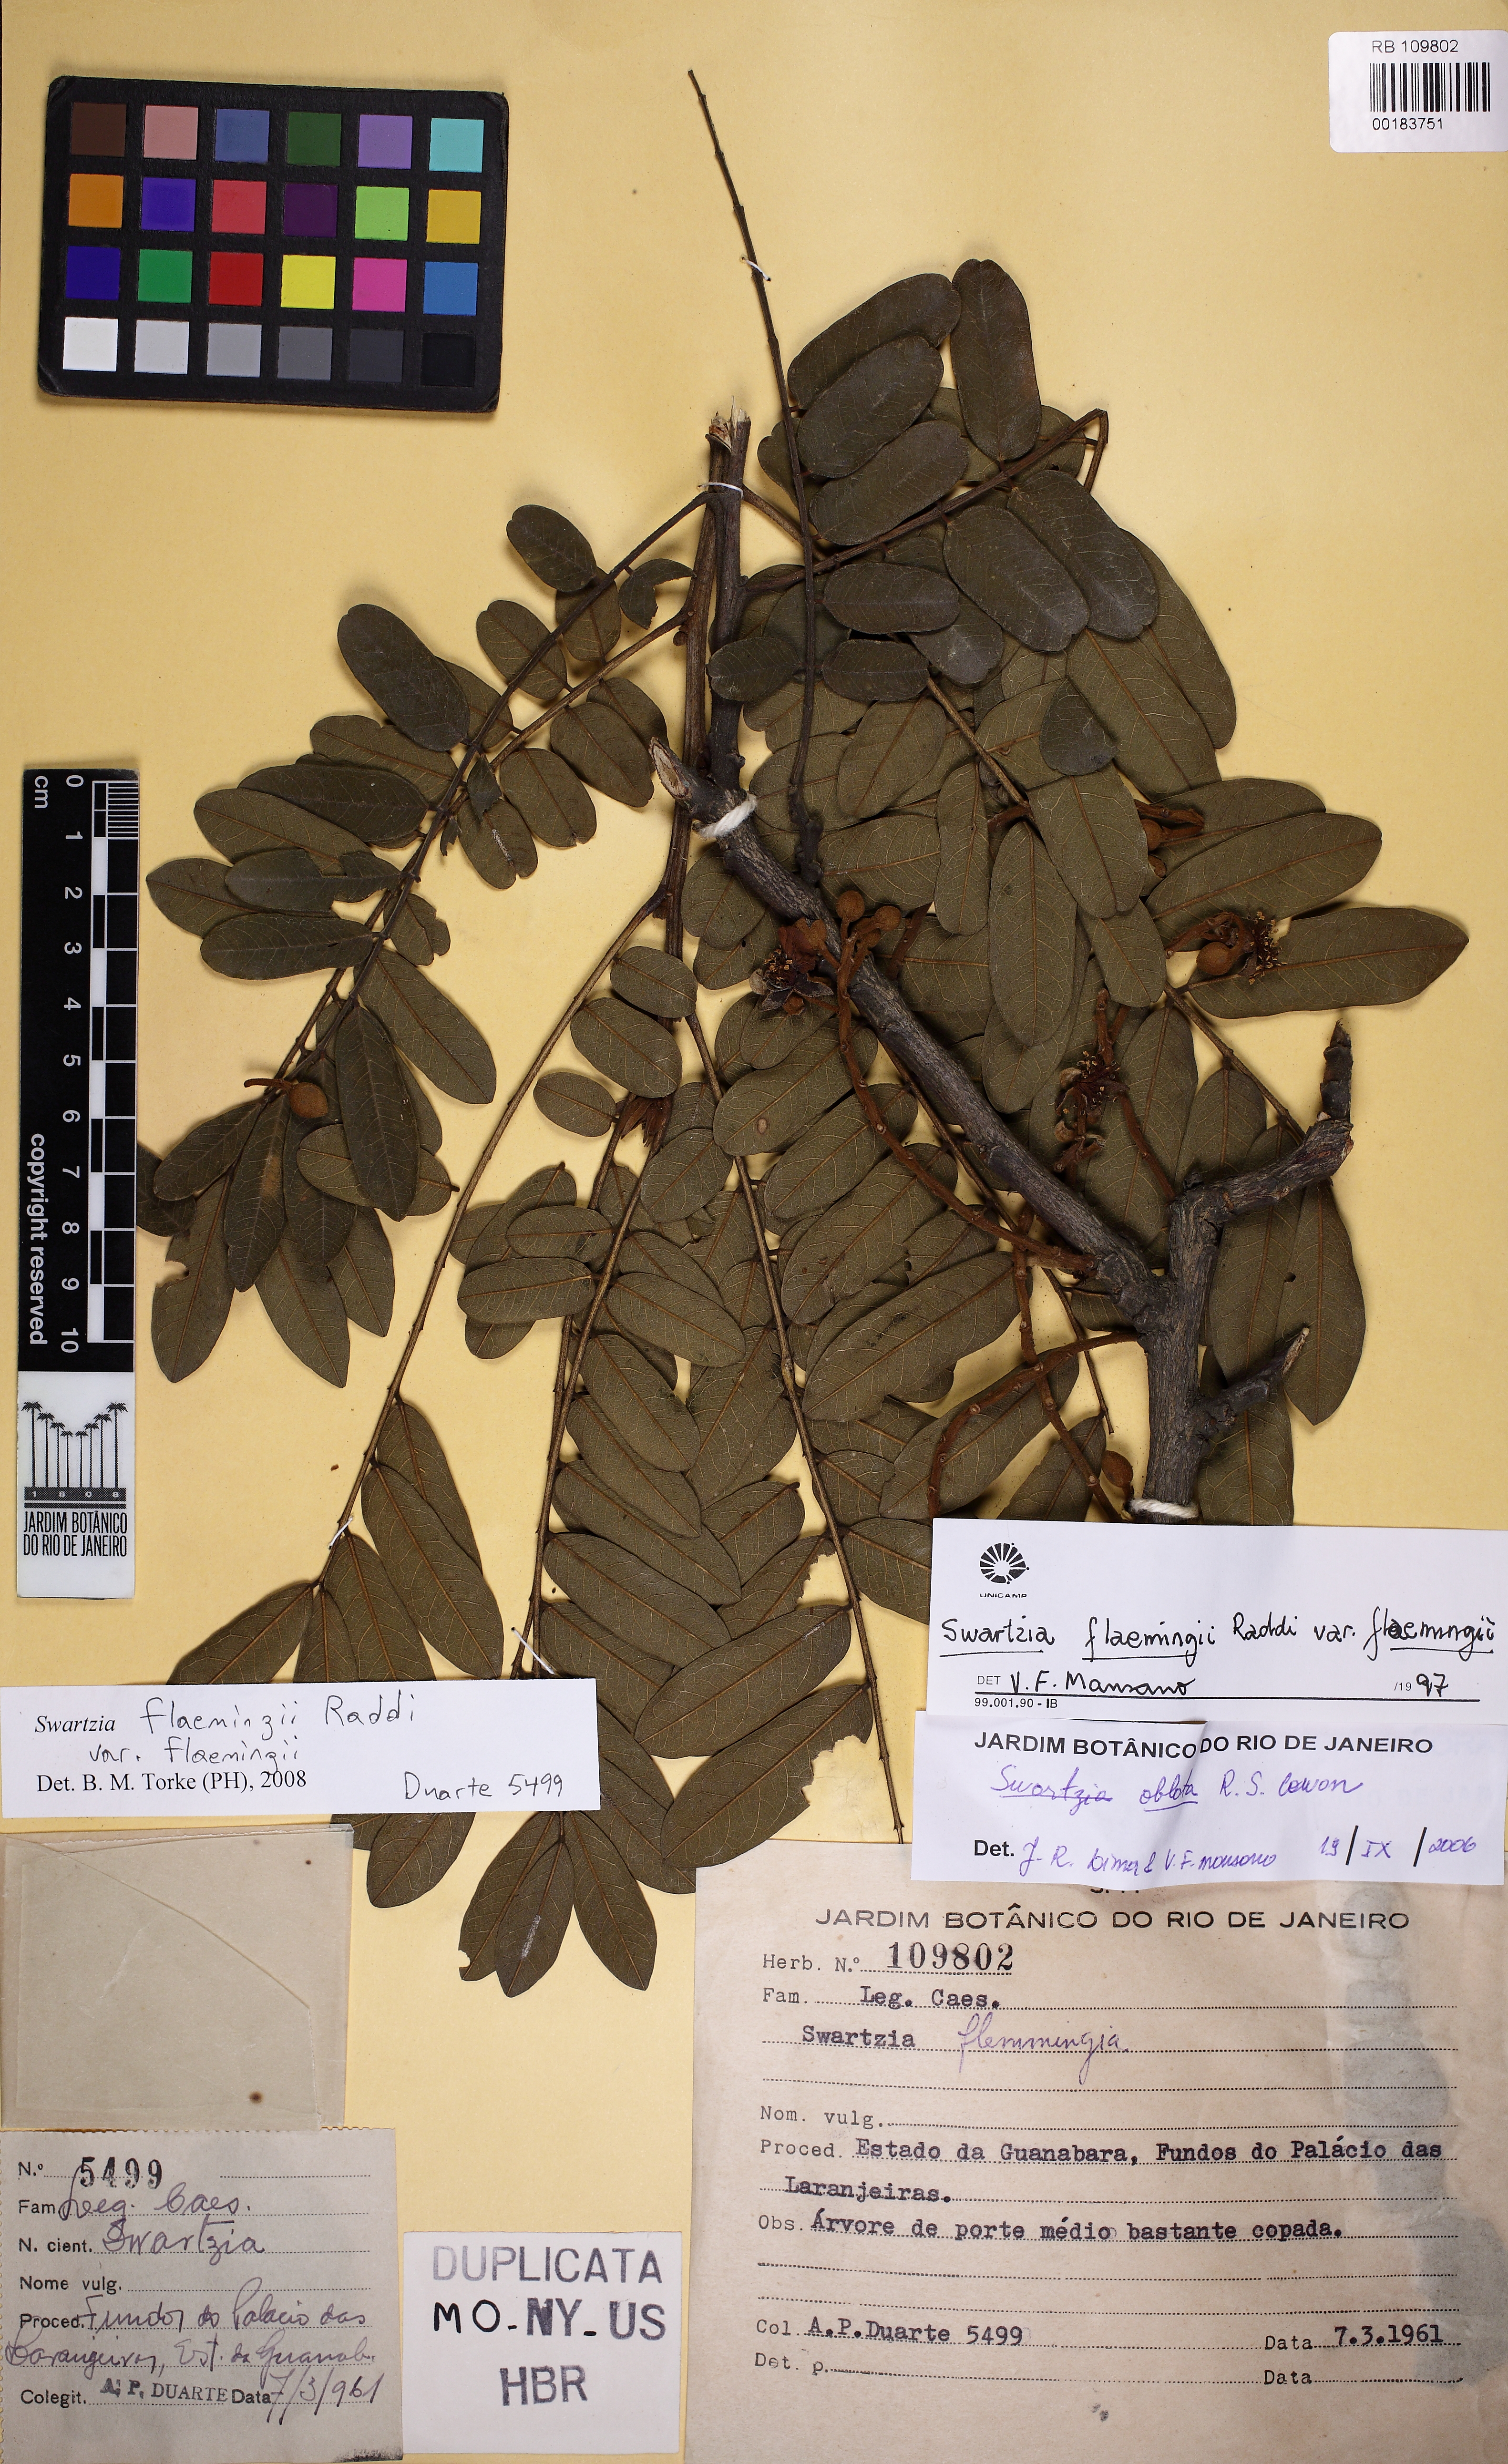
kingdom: Plantae
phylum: Tracheophyta
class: Magnoliopsida
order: Fabales
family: Fabaceae
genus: Swartzia
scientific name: Swartzia flaemingii
